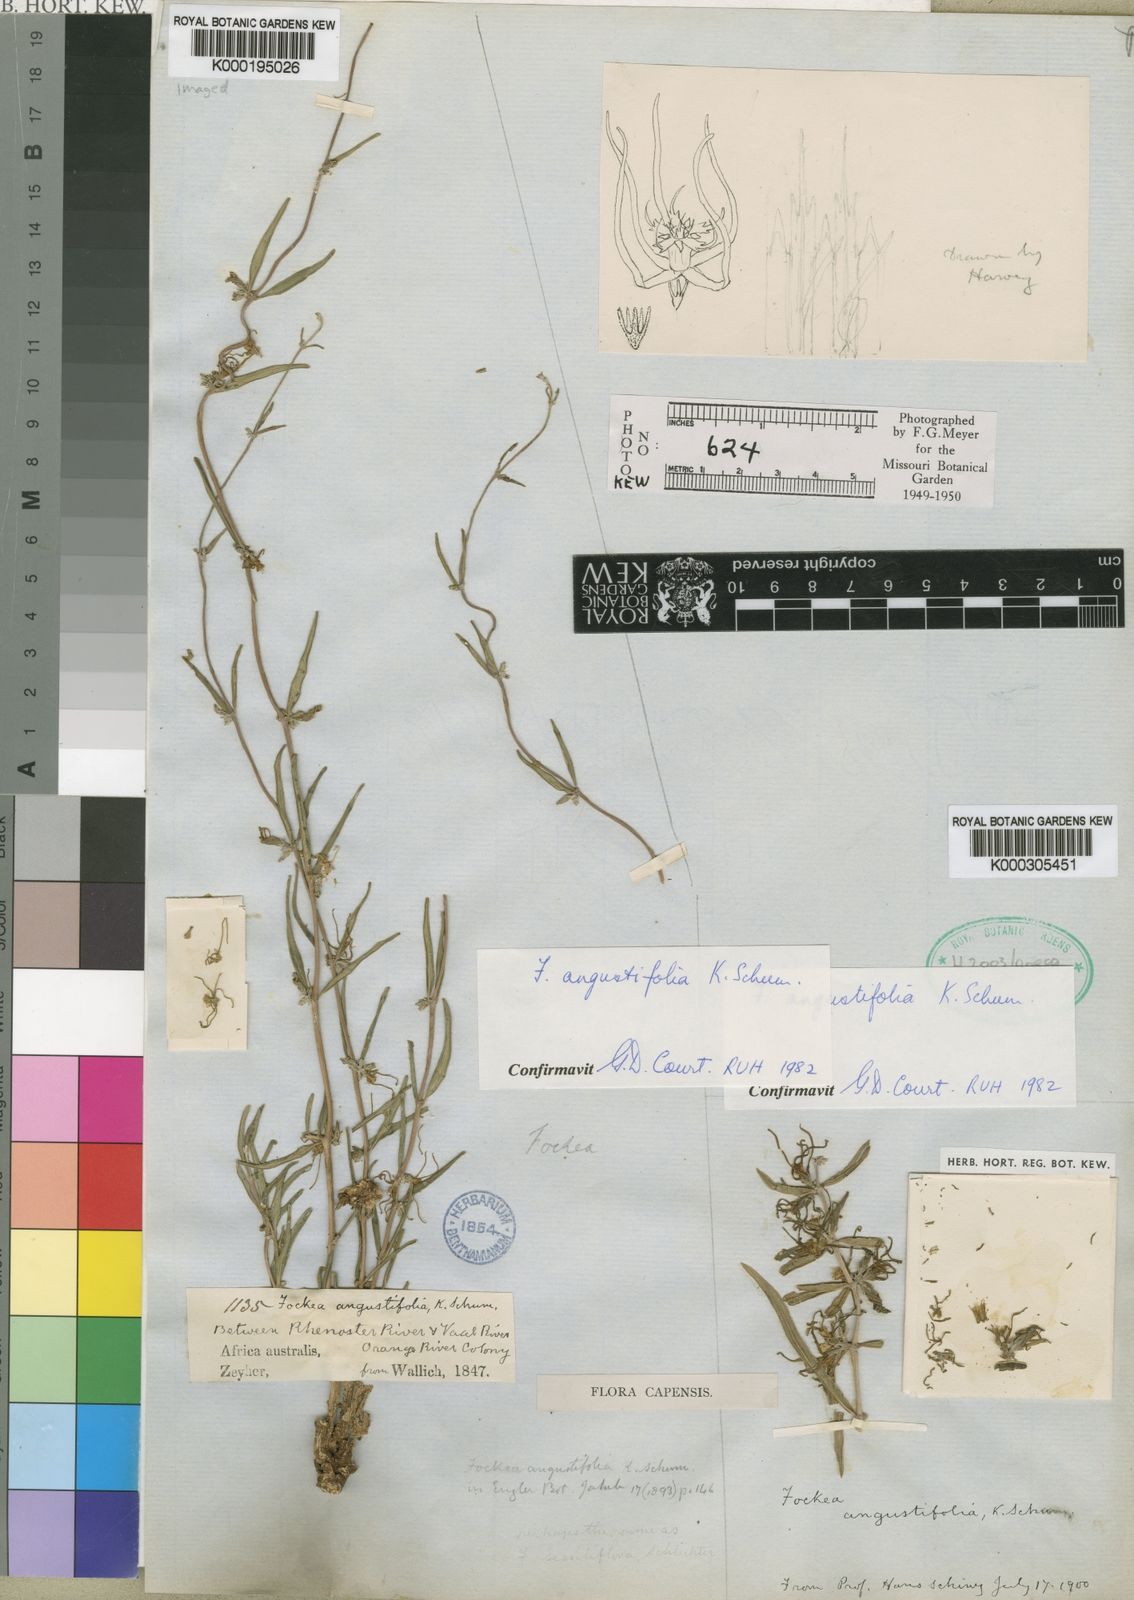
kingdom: Plantae
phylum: Tracheophyta
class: Magnoliopsida
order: Gentianales
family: Apocynaceae
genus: Fockea
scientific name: Fockea angustifolia
